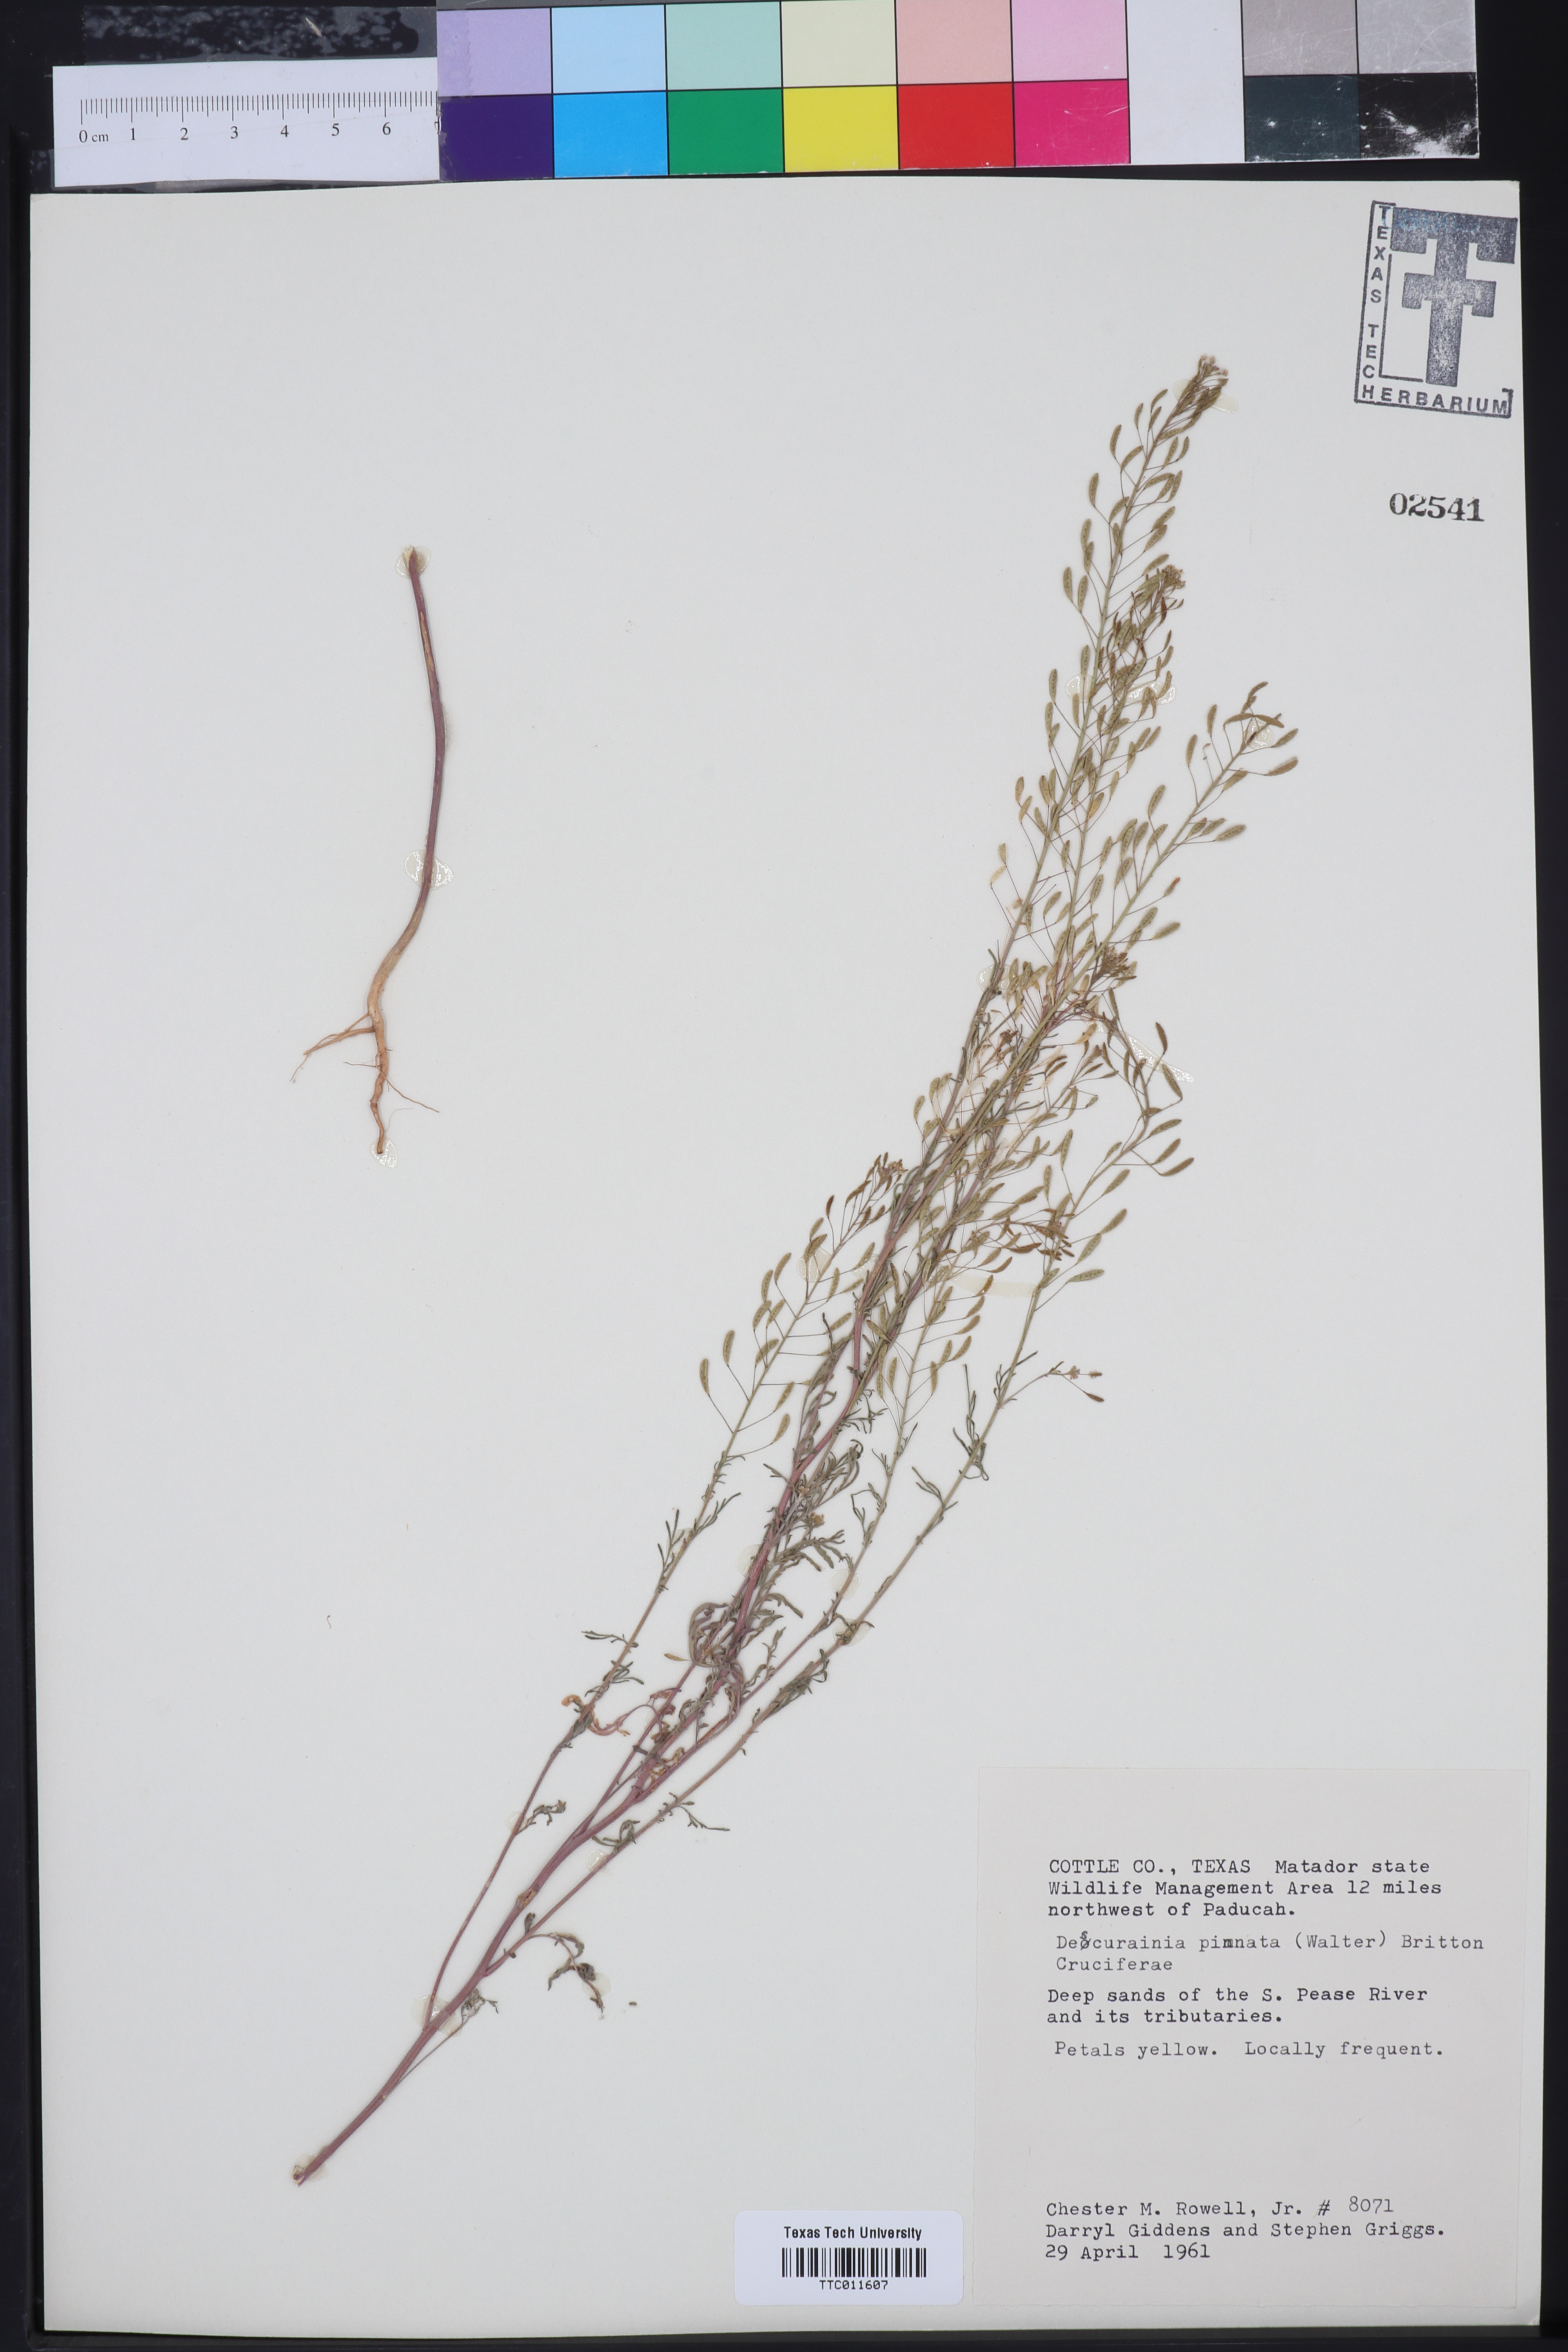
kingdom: Plantae
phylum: Tracheophyta
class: Magnoliopsida
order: Brassicales
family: Brassicaceae
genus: Descurainia
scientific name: Descurainia pinnata
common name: Western tansy mustard
